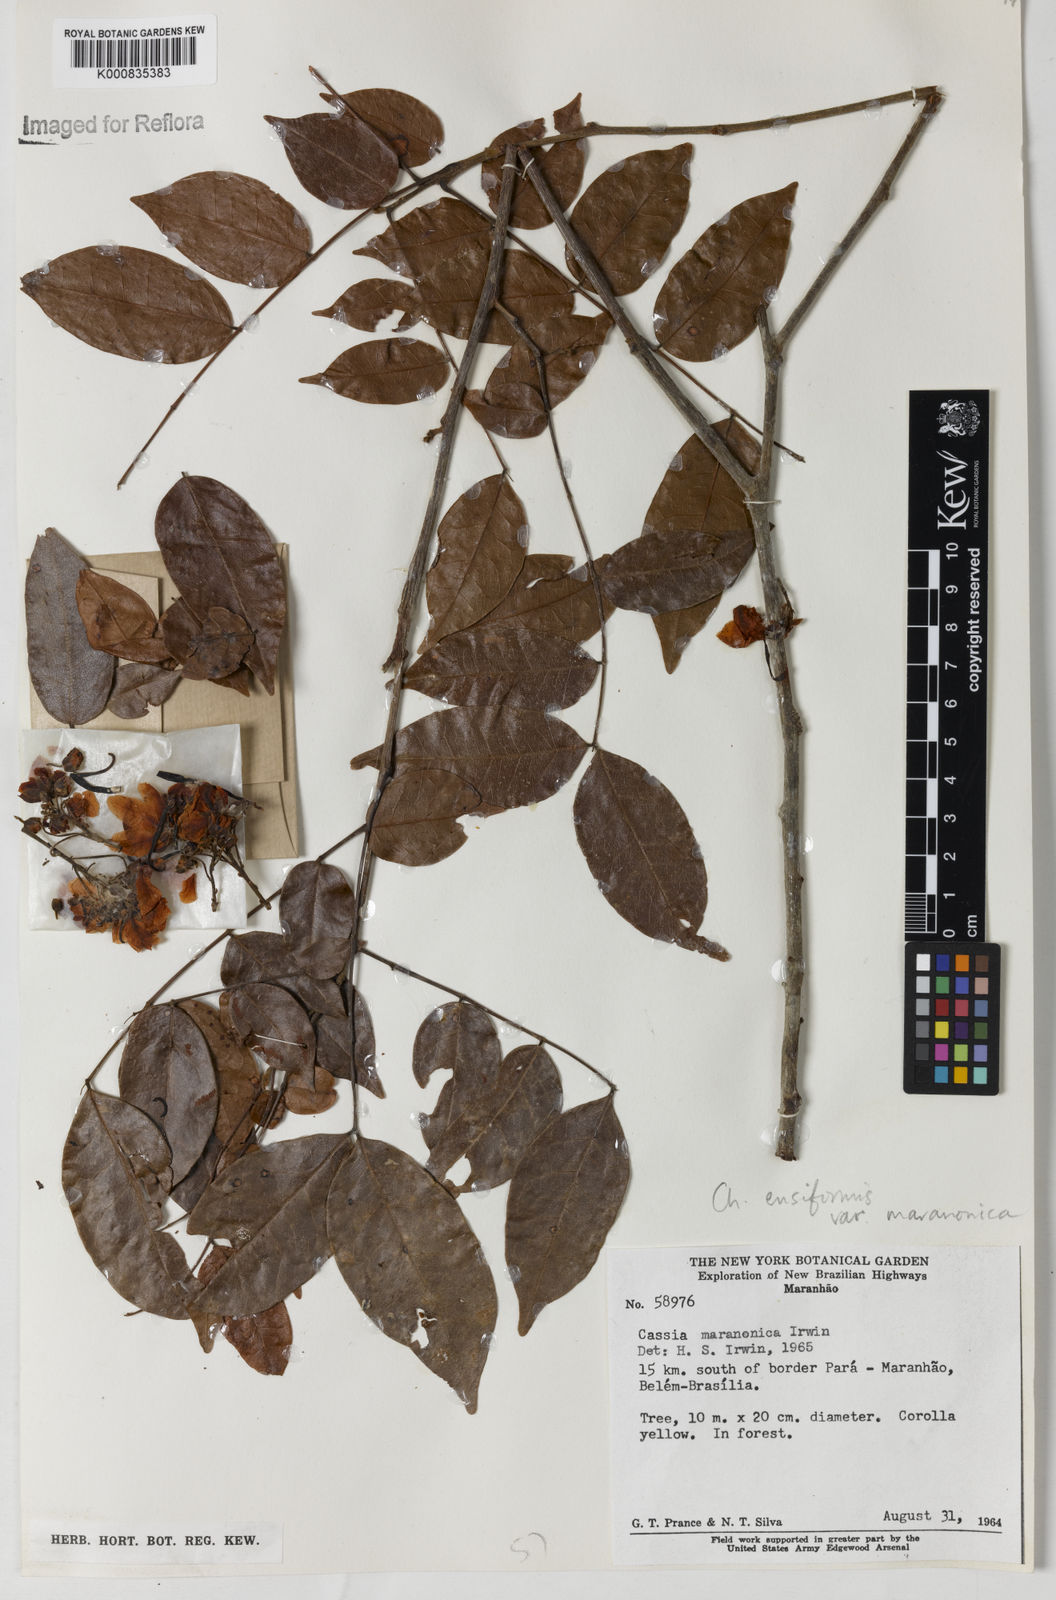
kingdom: Plantae
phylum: Tracheophyta
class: Magnoliopsida
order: Fabales
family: Fabaceae
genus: Chamaecrista
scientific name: Chamaecrista ensiformis
